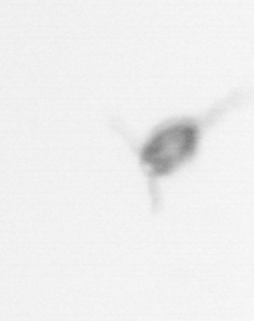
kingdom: Animalia
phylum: Arthropoda
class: Copepoda
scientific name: Copepoda
